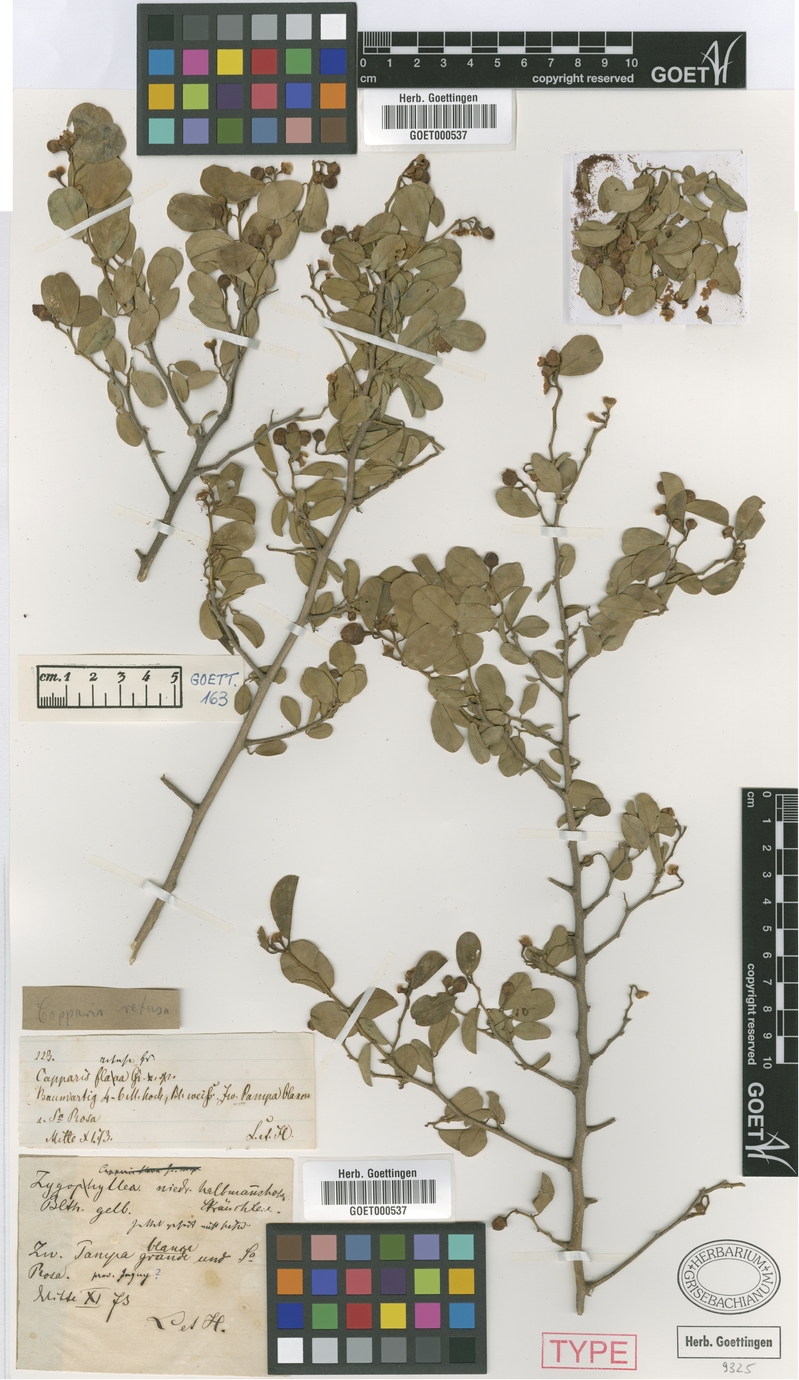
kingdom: Plantae
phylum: Tracheophyta
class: Magnoliopsida
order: Brassicales
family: Capparaceae
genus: Cynophalla
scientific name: Cynophalla retusa
